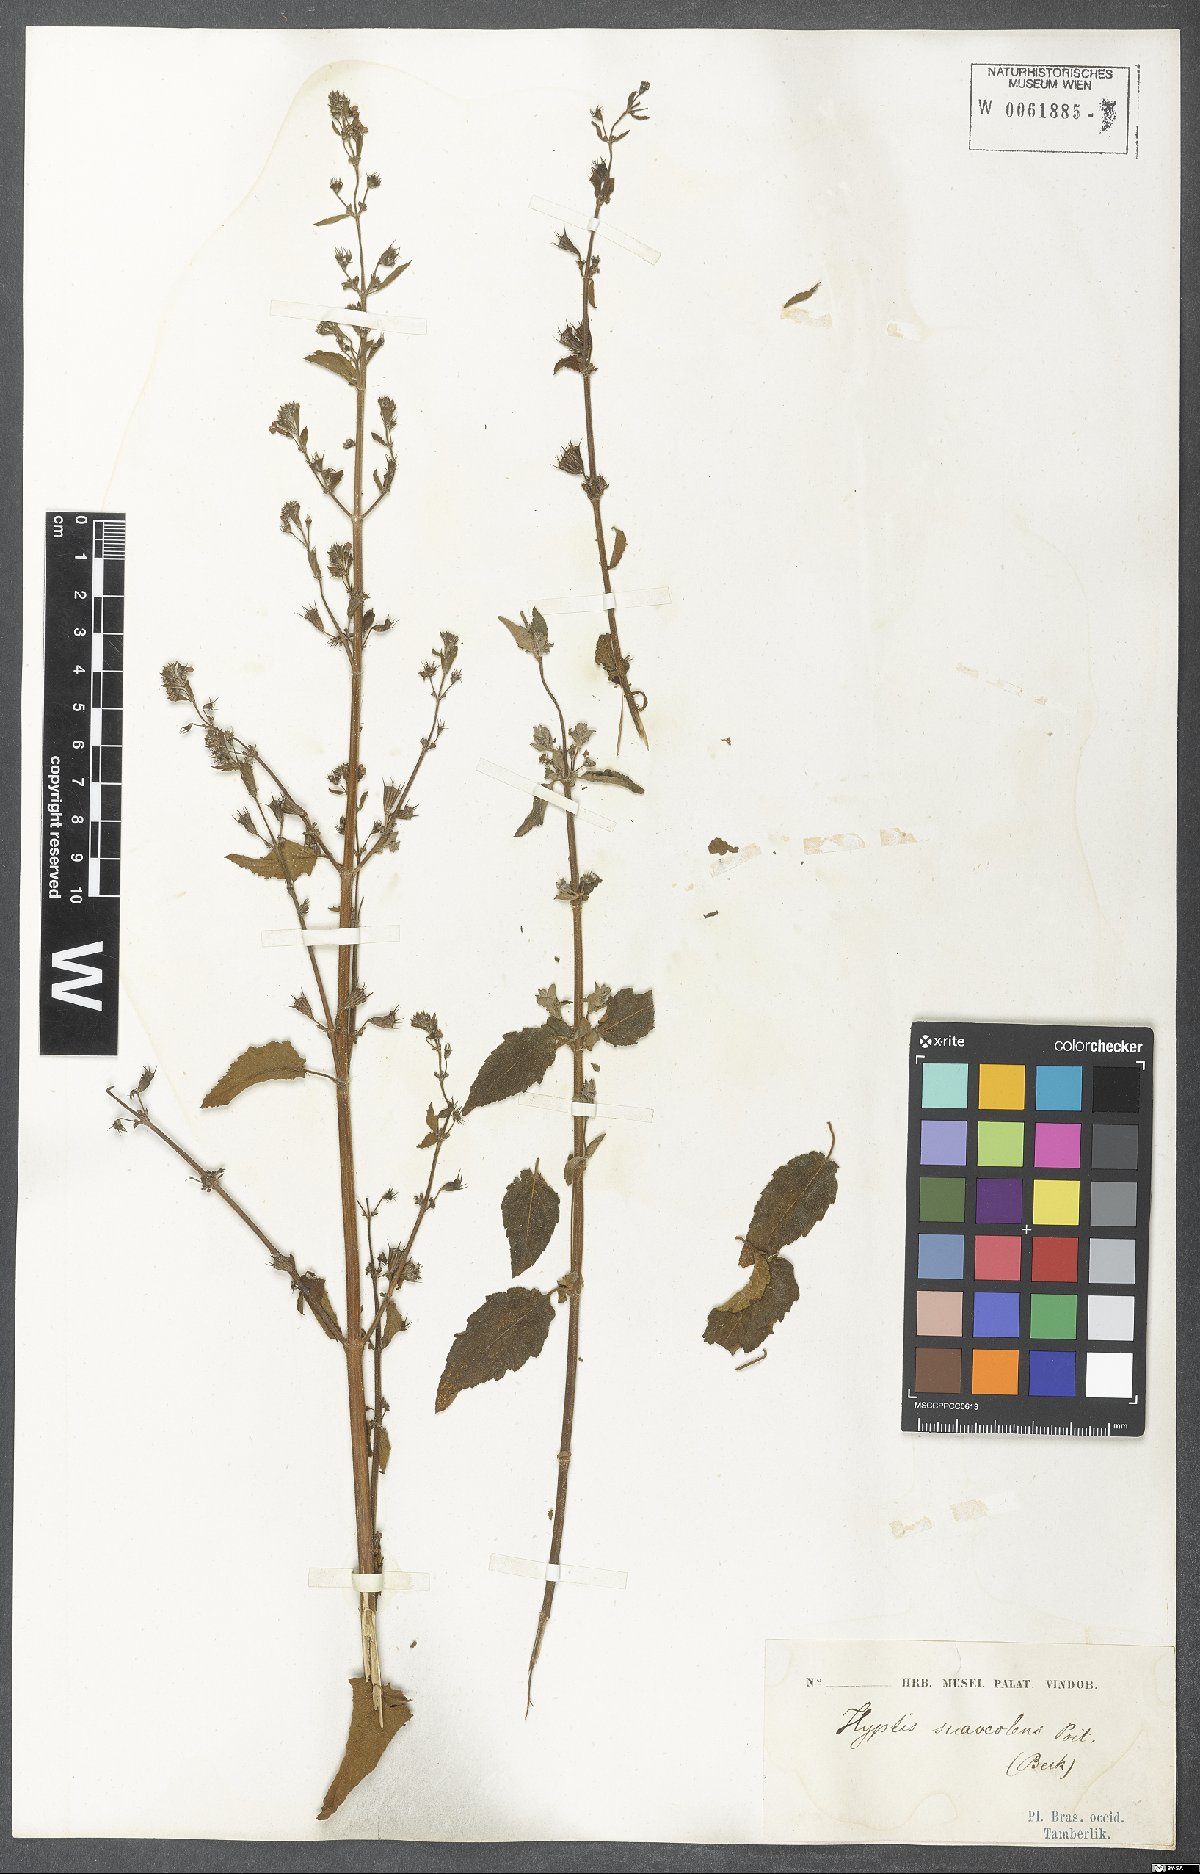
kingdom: Plantae
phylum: Tracheophyta
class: Magnoliopsida
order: Lamiales
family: Lamiaceae
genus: Mesosphaerum
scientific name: Mesosphaerum suaveolens
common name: Pignut
